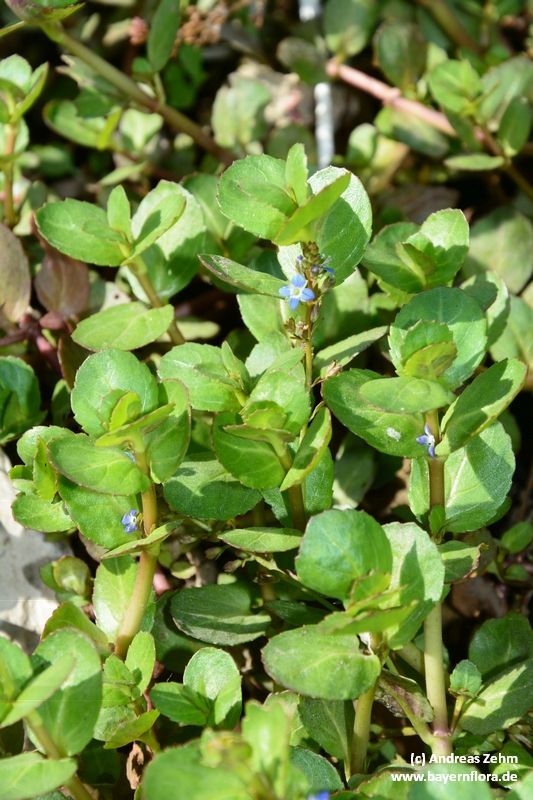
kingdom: Plantae
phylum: Tracheophyta
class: Magnoliopsida
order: Lamiales
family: Plantaginaceae
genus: Veronica
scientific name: Veronica beccabunga
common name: Brooklime
